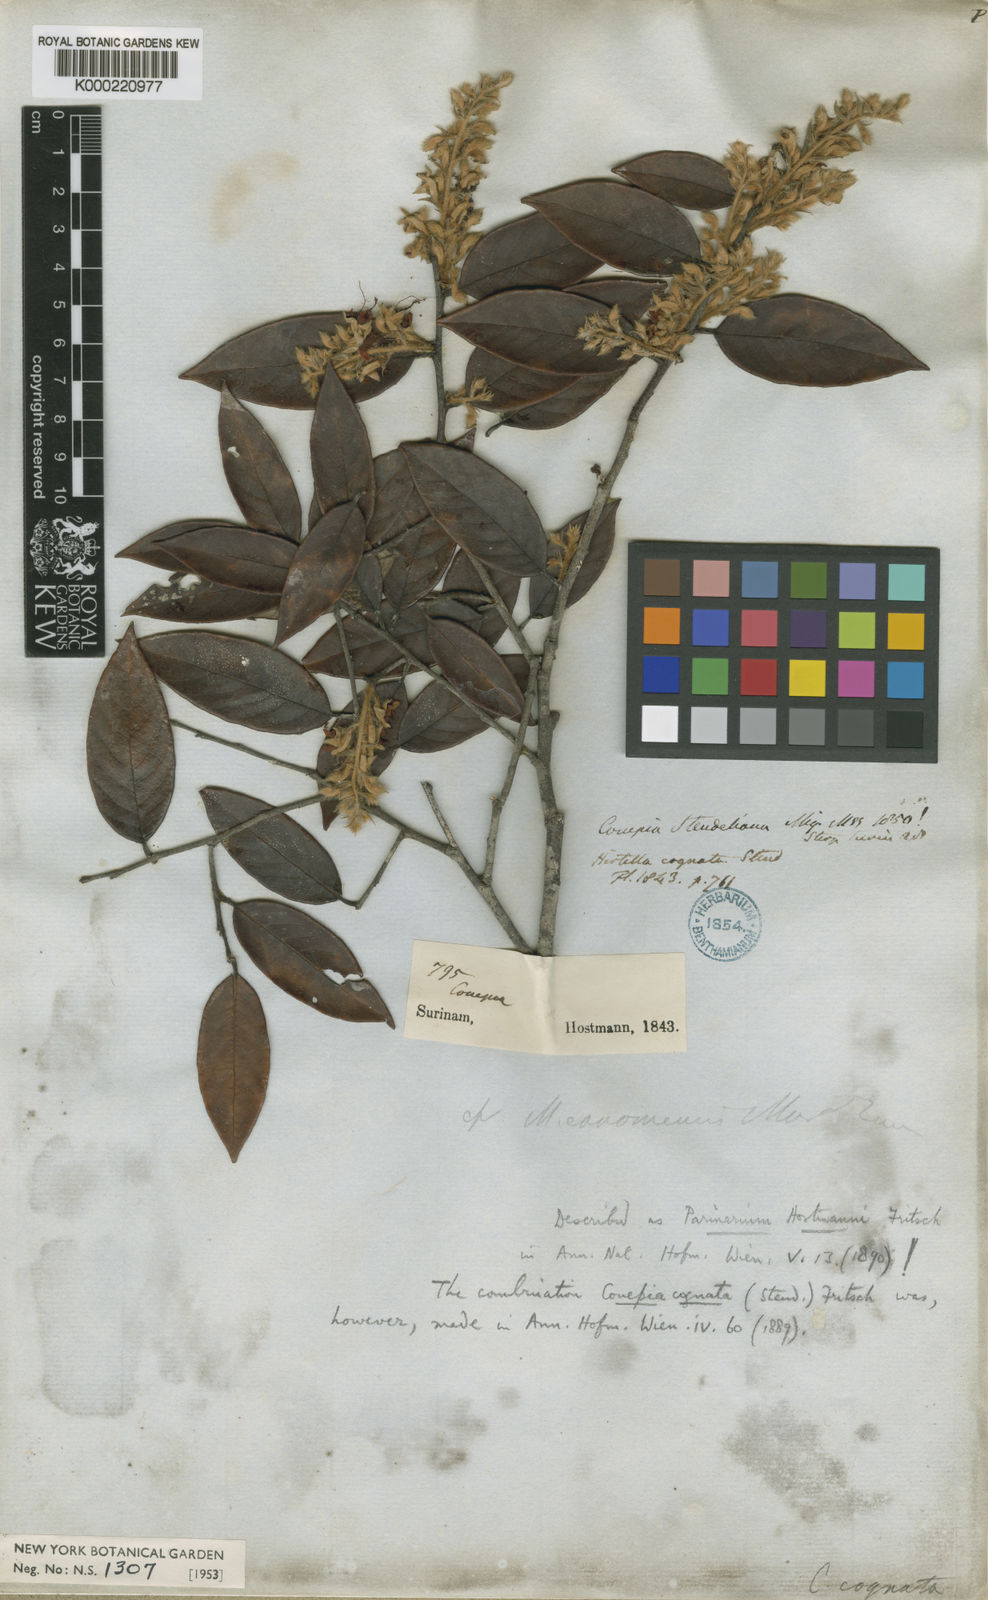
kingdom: Plantae
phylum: Tracheophyta
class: Magnoliopsida
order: Malpighiales
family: Chrysobalanaceae
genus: Couepia
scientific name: Couepia
